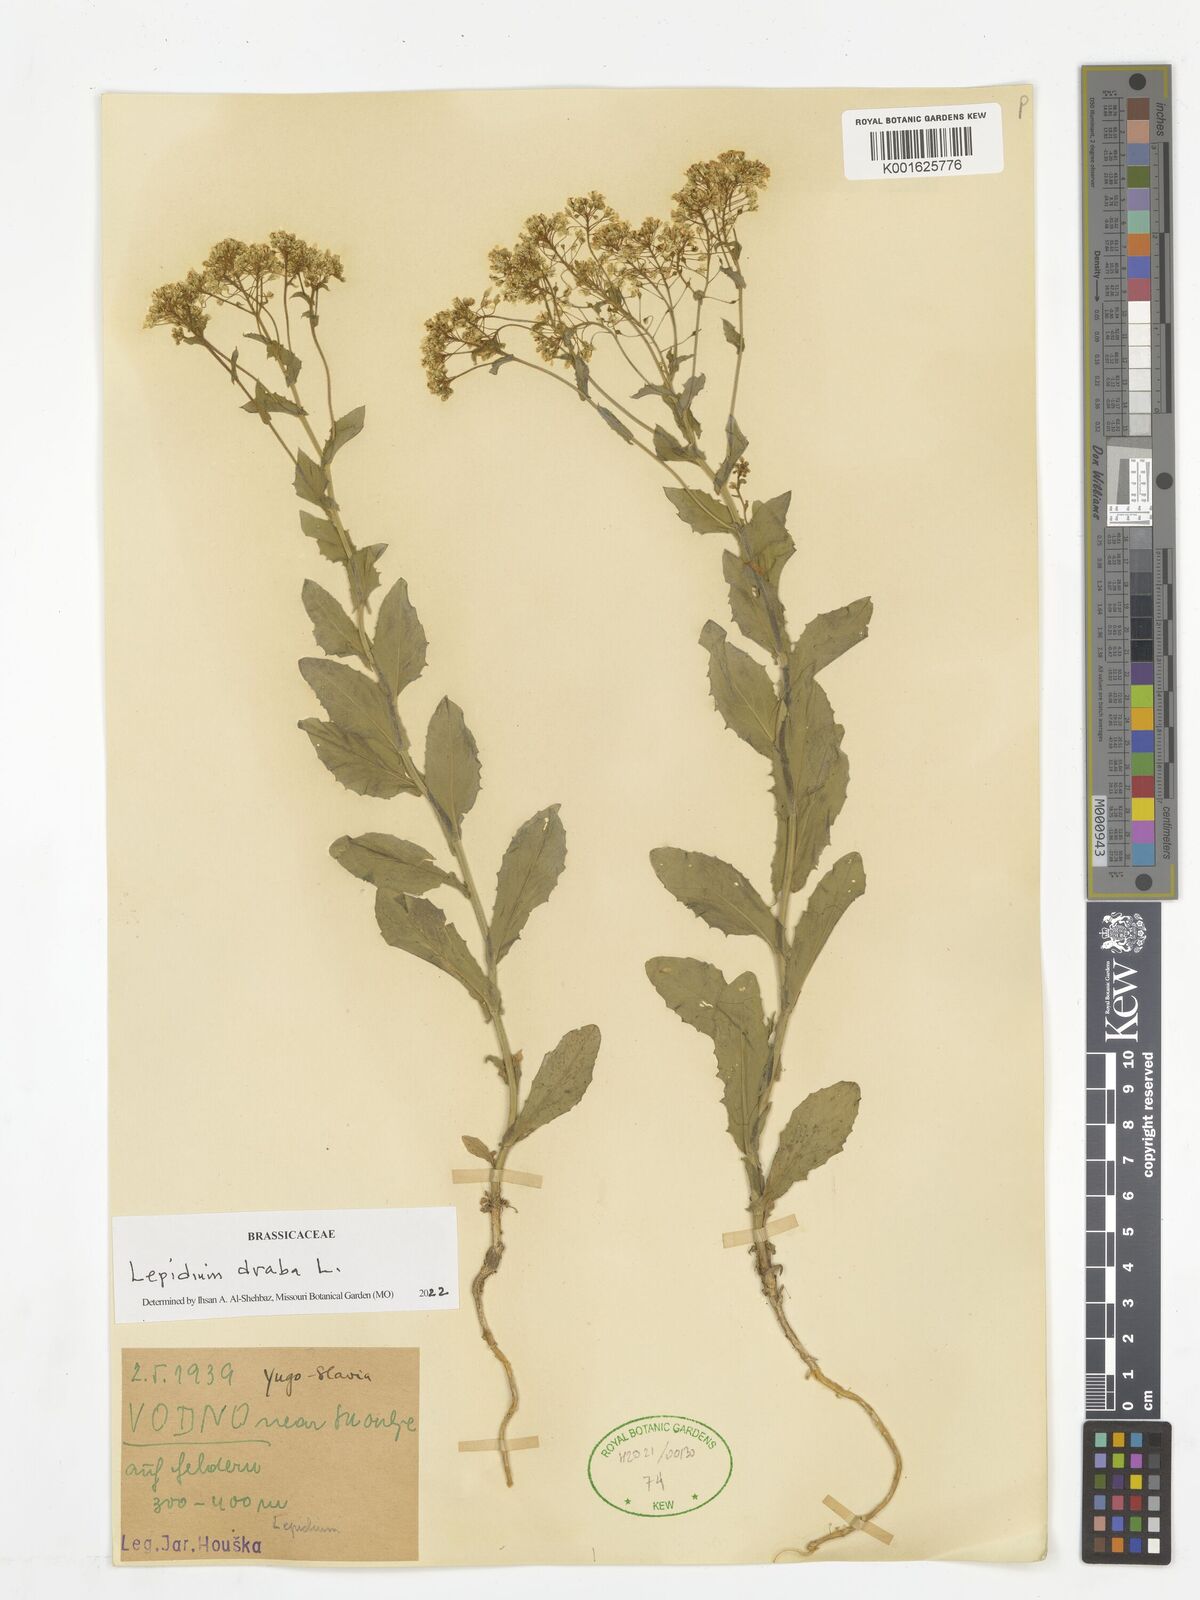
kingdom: Plantae
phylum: Tracheophyta
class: Magnoliopsida
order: Brassicales
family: Brassicaceae
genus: Lepidium
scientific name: Lepidium draba
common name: Hoary cress
